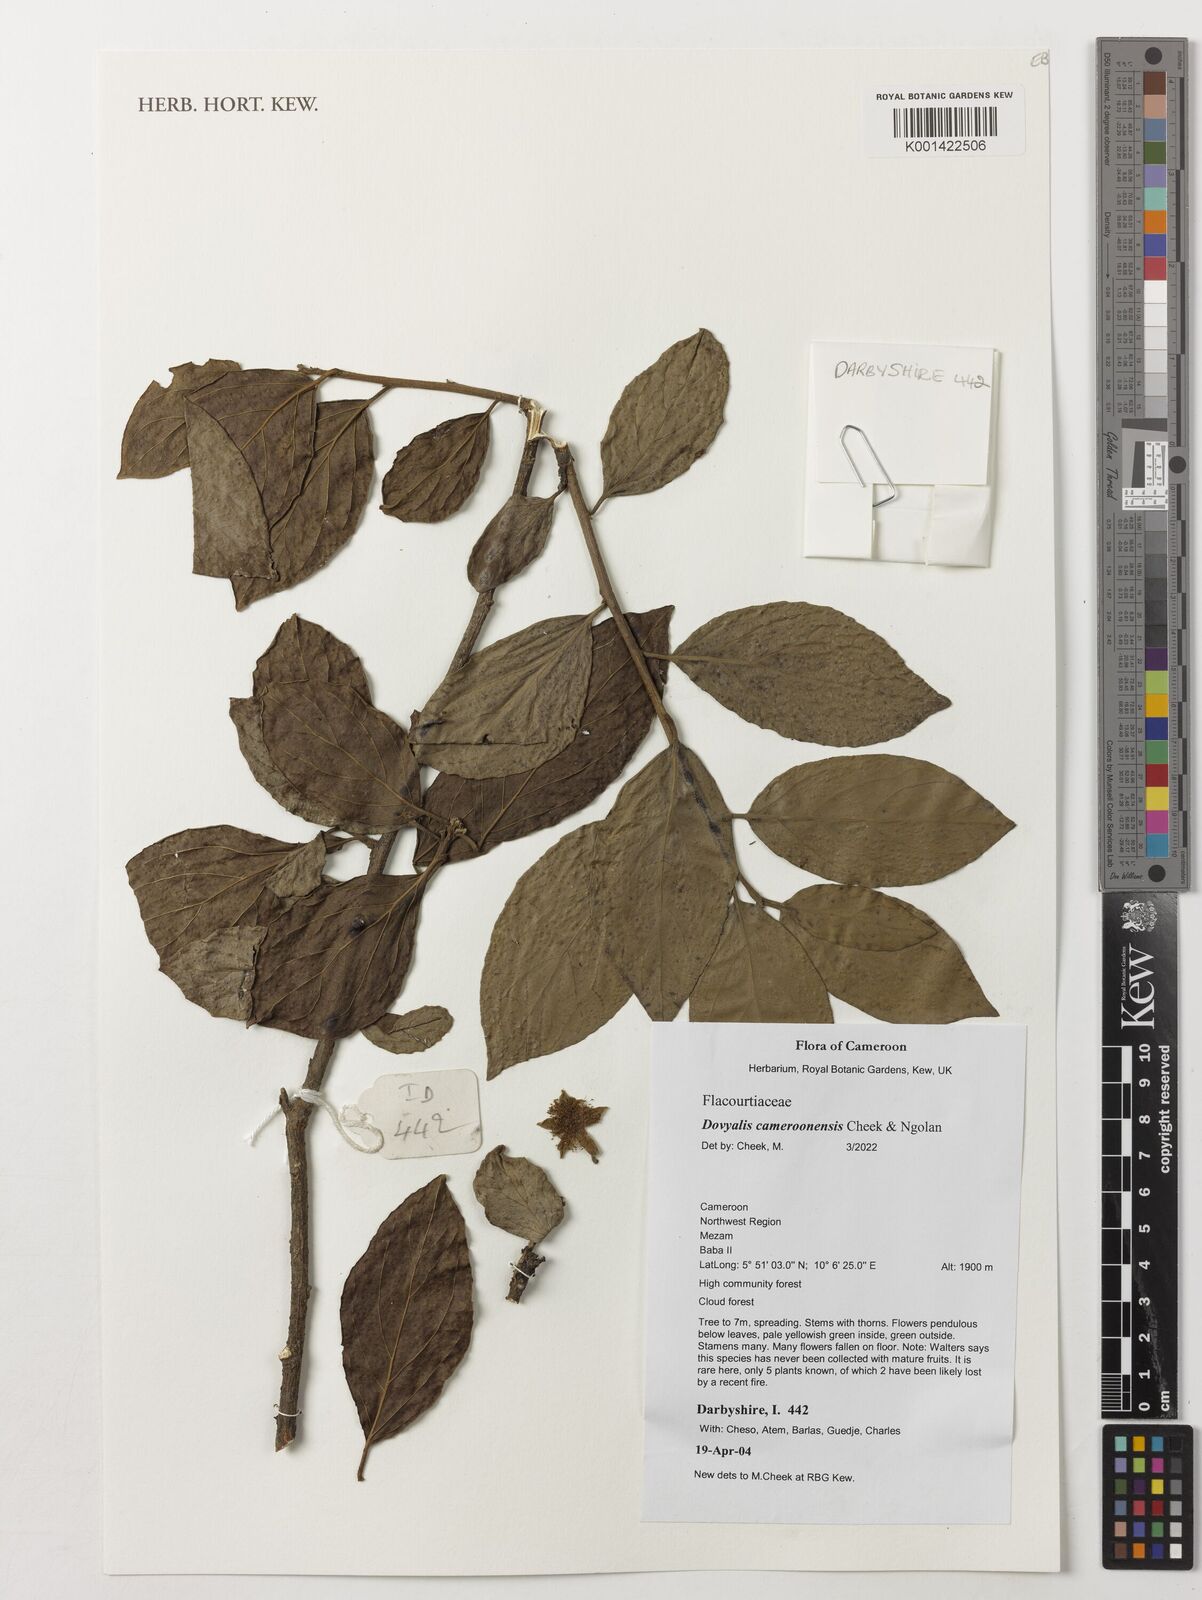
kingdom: Plantae
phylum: Tracheophyta
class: Magnoliopsida
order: Malpighiales
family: Salicaceae
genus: Dovyalis
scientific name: Dovyalis cameroonensis
